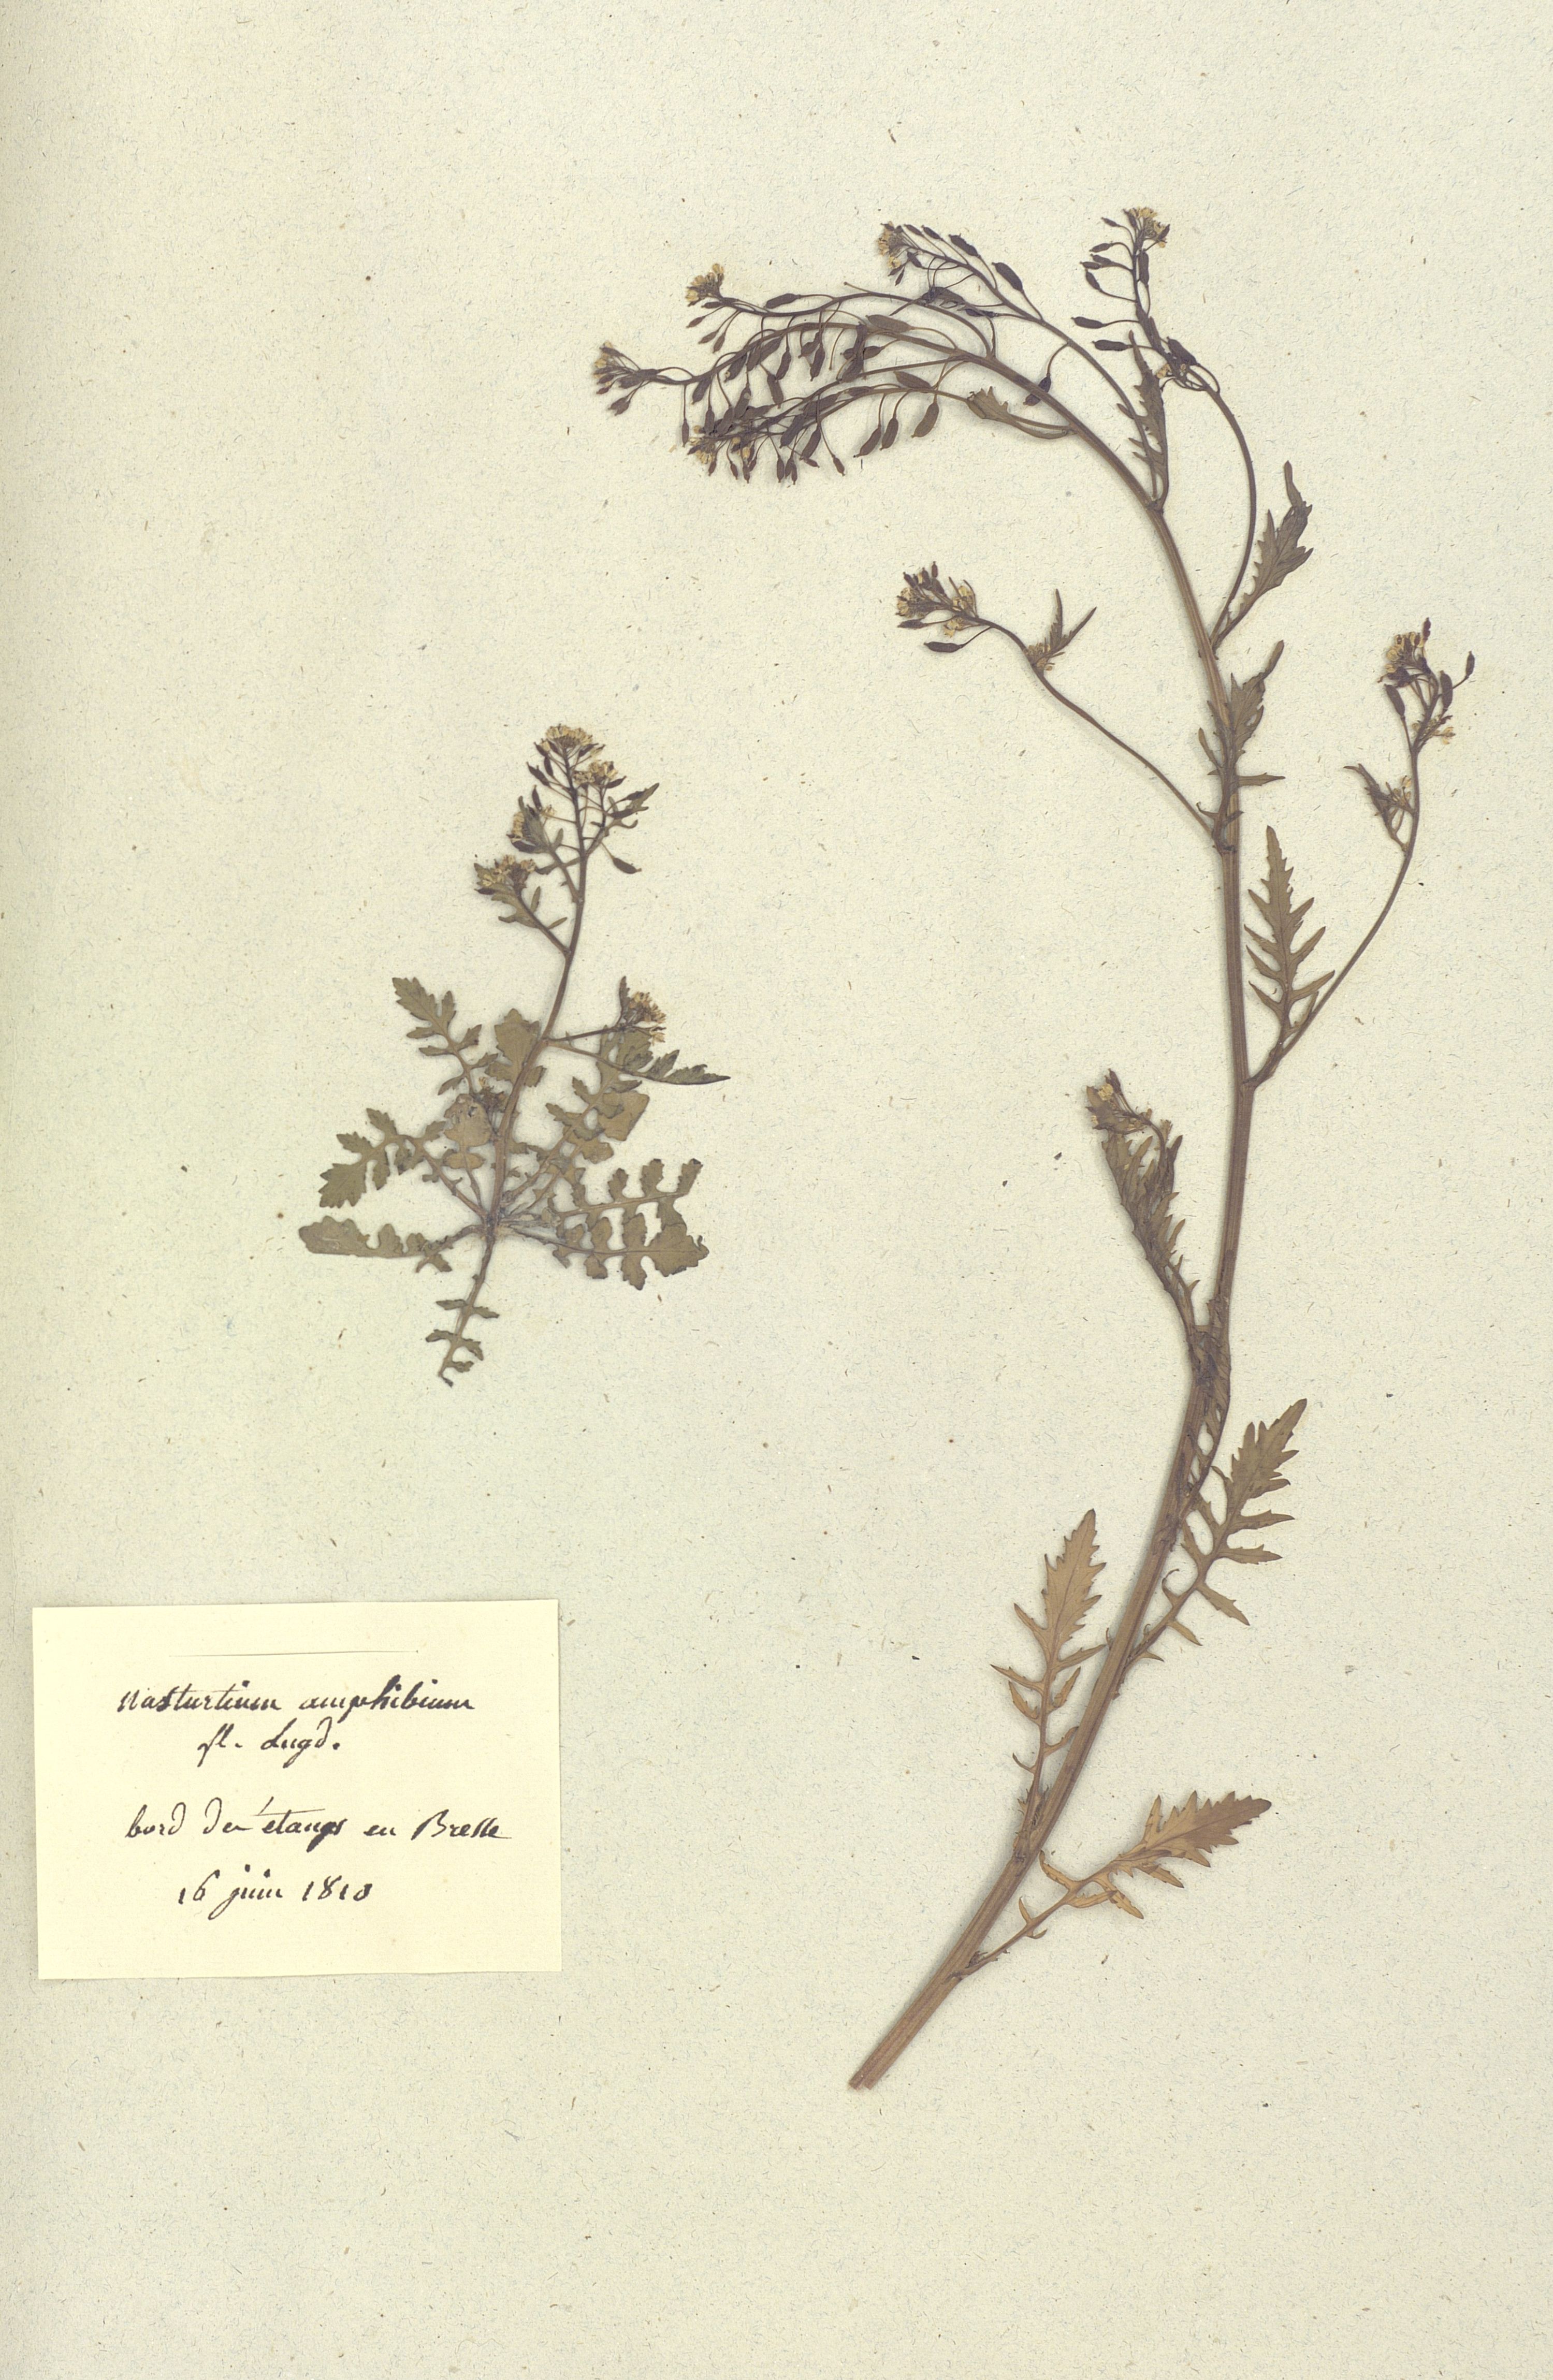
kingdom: Plantae
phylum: Tracheophyta
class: Magnoliopsida
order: Brassicales
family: Brassicaceae
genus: Rorippa
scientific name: Rorippa amphibia
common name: Great yellow-cress
